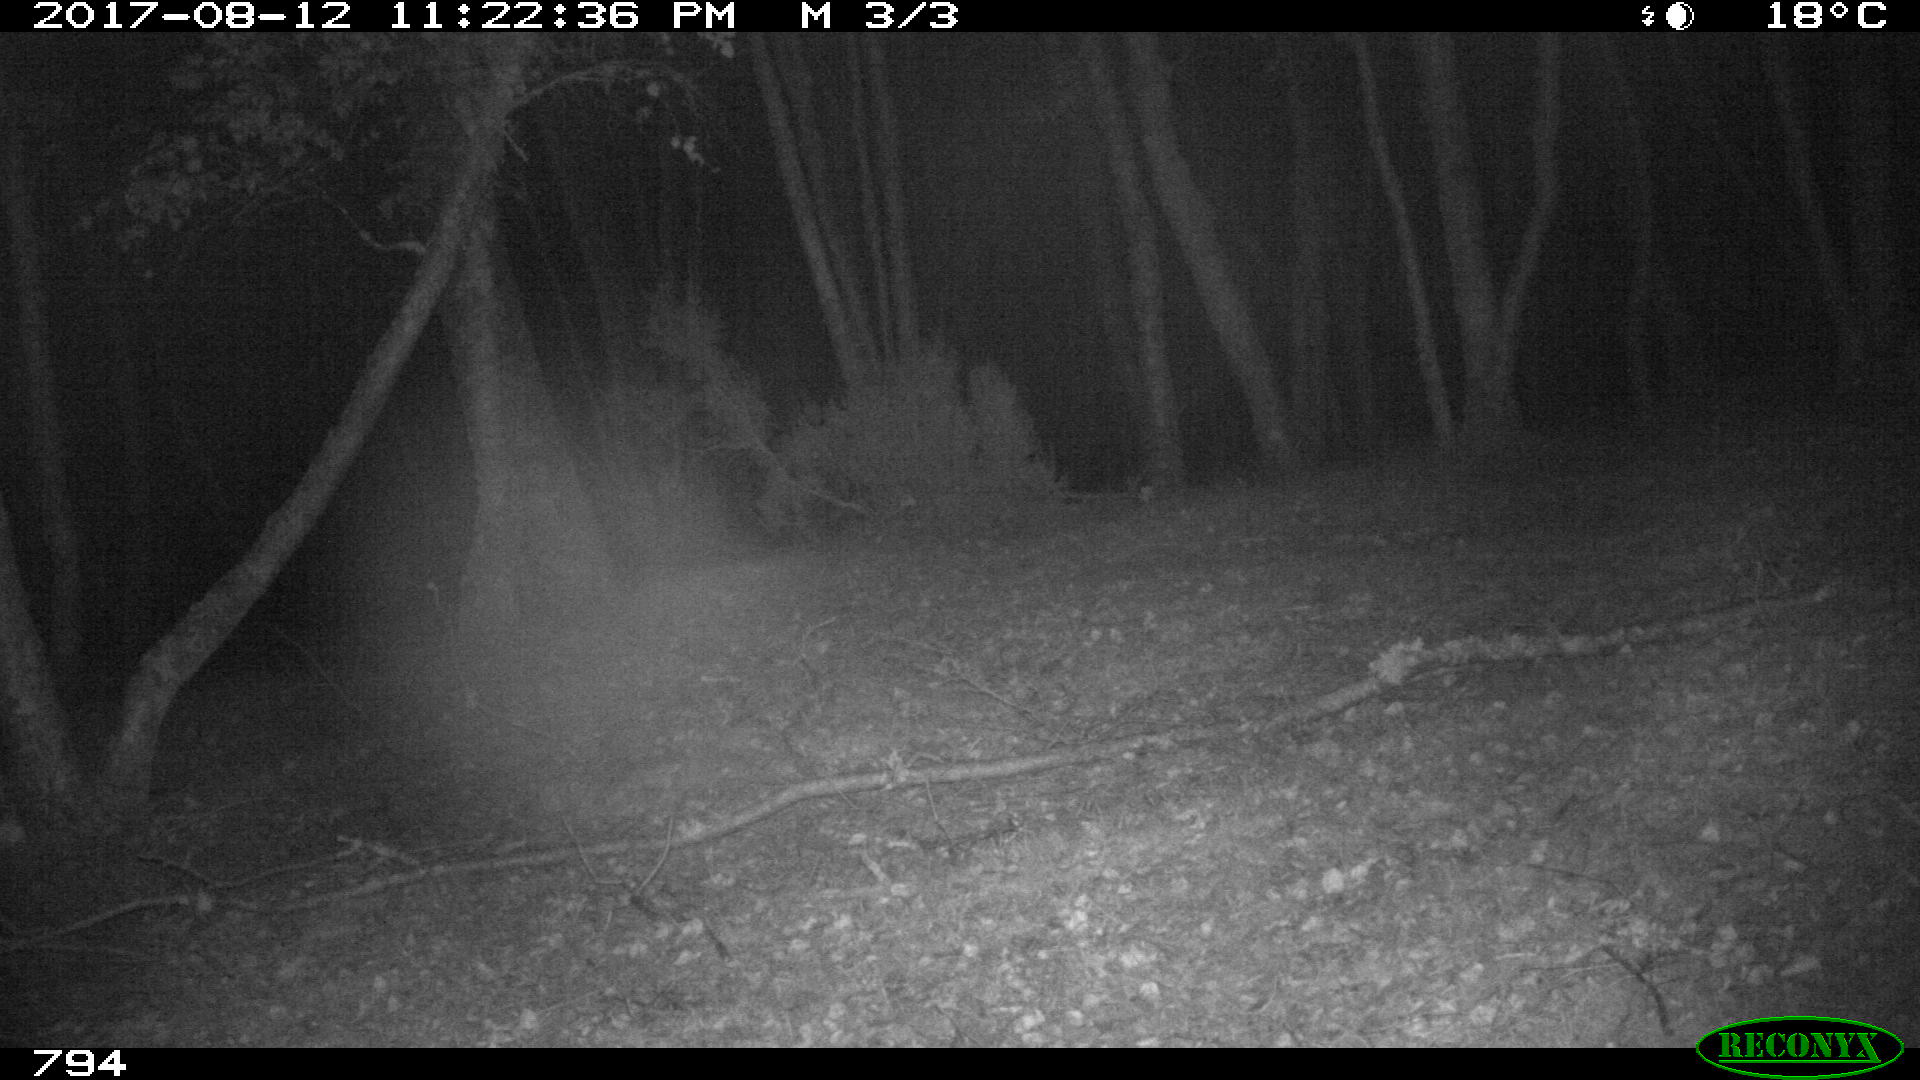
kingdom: Animalia
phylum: Chordata
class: Mammalia
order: Artiodactyla
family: Suidae
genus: Sus
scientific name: Sus scrofa
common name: Wild boar
